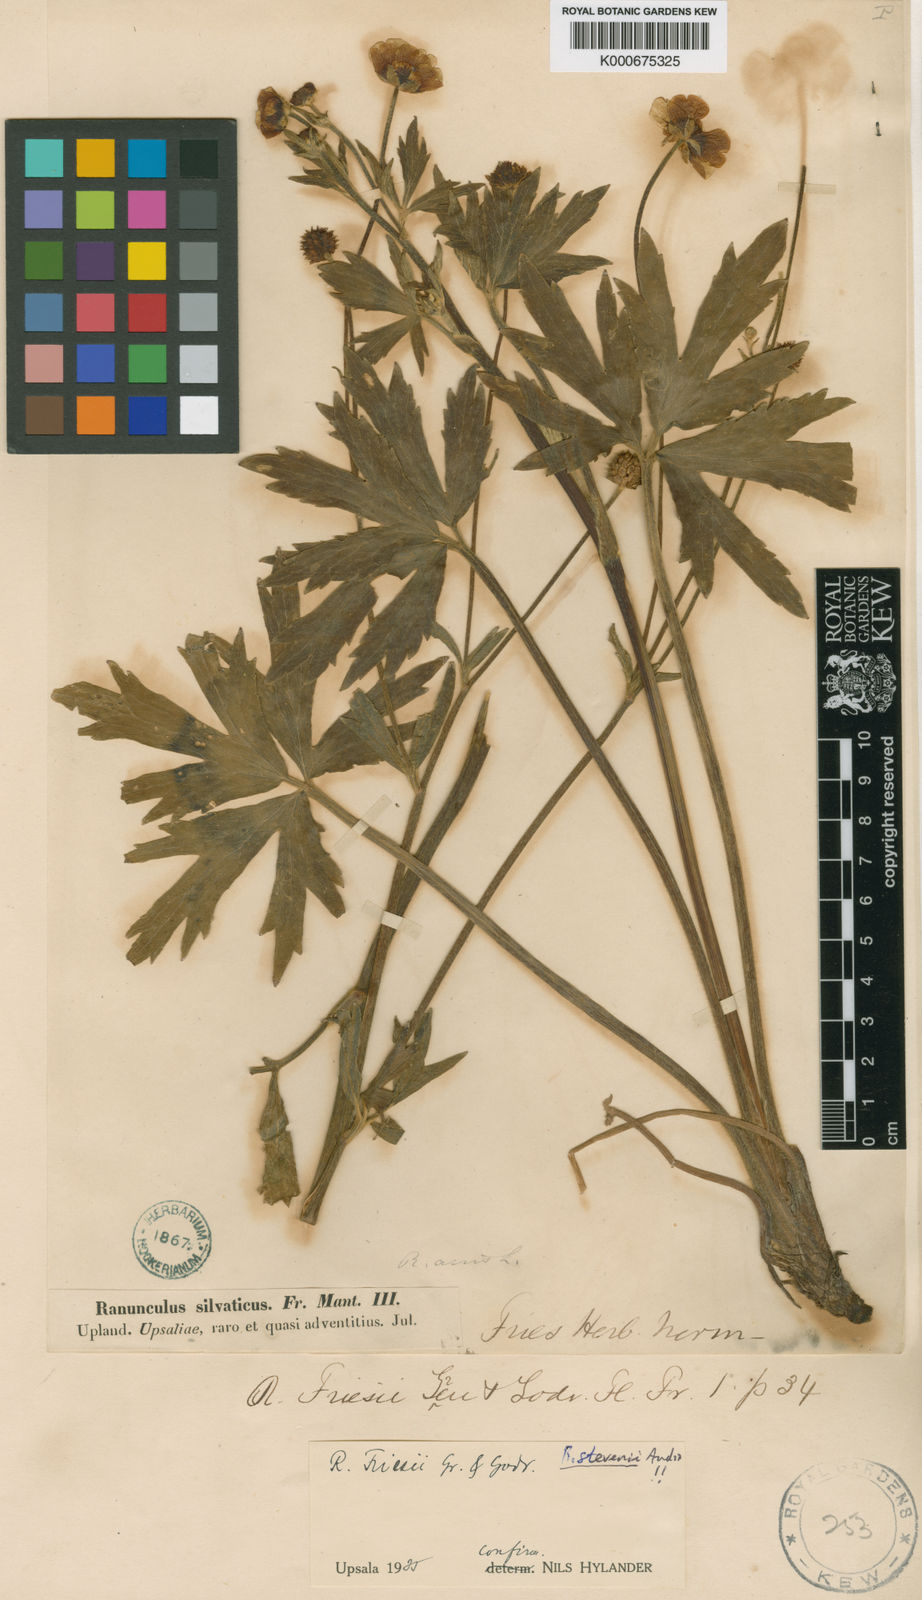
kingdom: Plantae
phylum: Tracheophyta
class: Magnoliopsida
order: Ranunculales
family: Ranunculaceae
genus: Ranunculus
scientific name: Ranunculus acris
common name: Meadow buttercup
